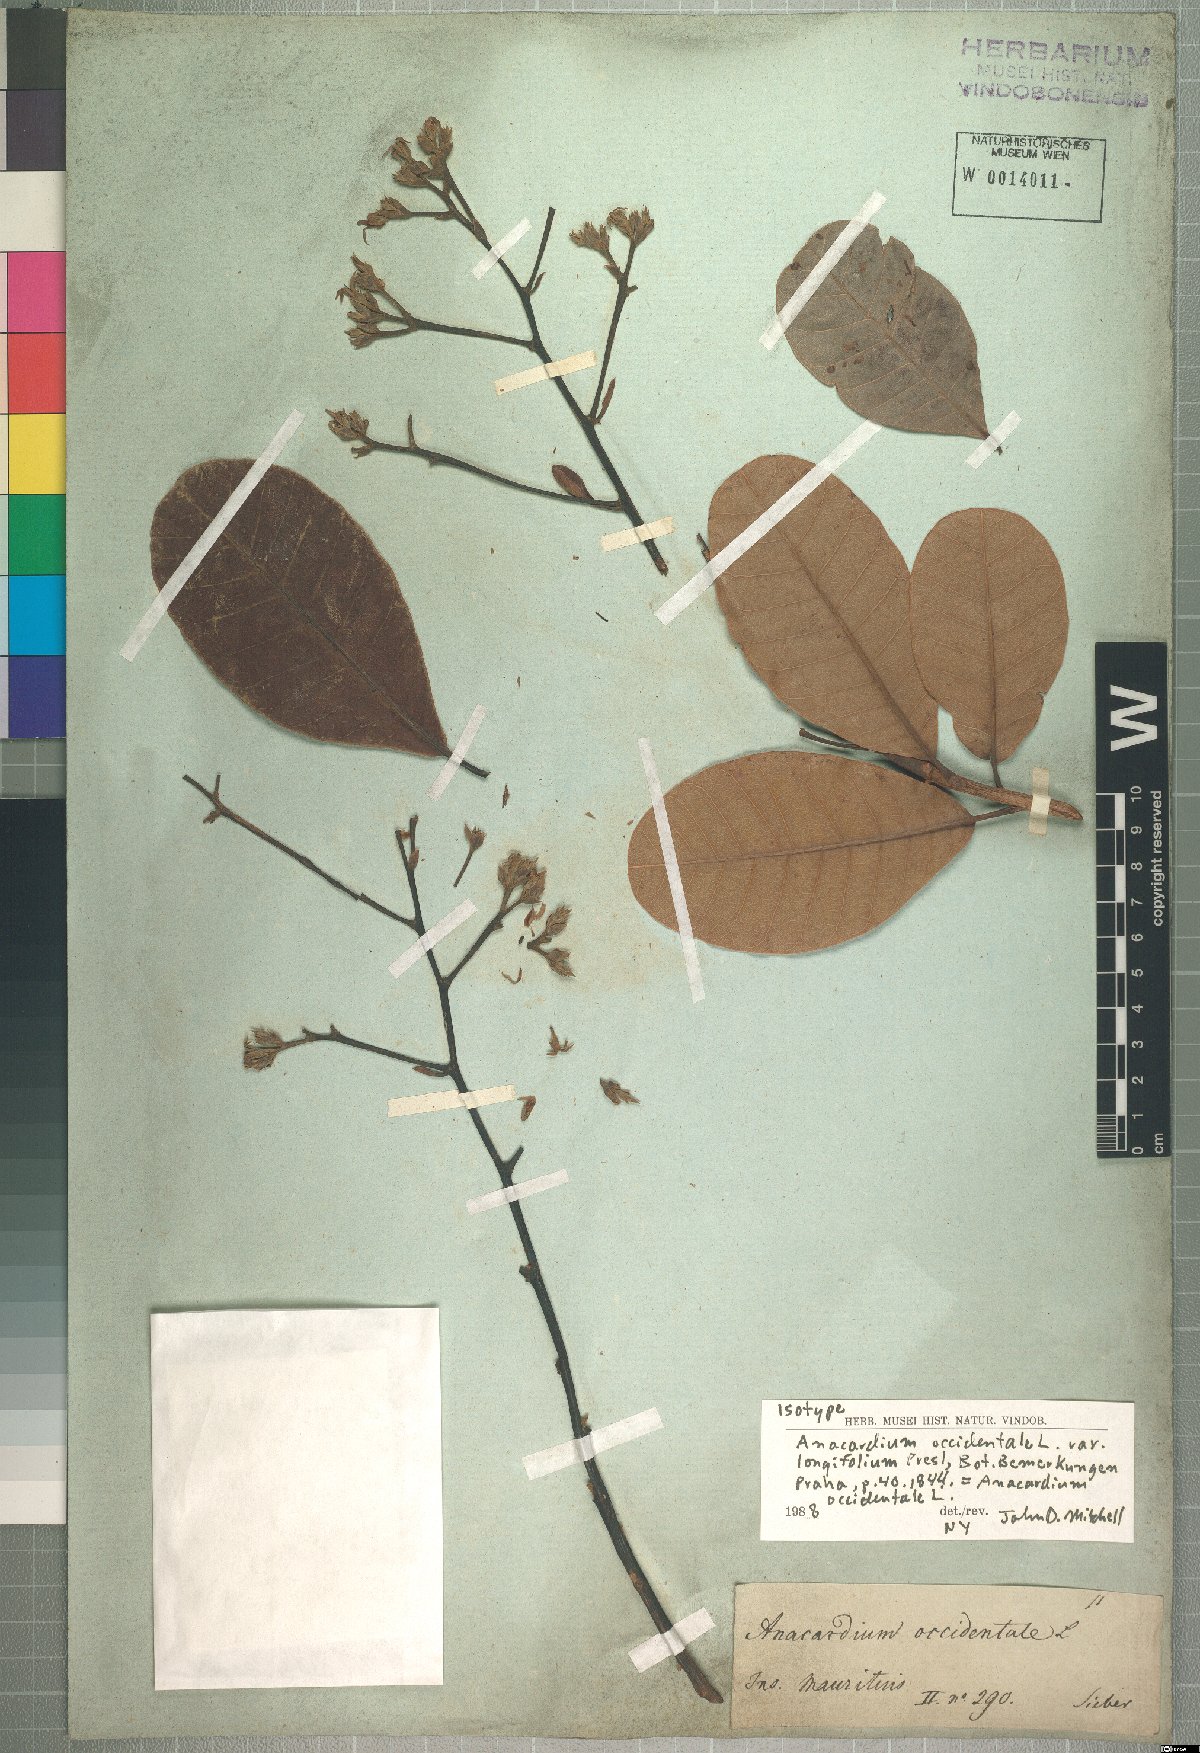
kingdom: Plantae
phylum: Tracheophyta
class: Magnoliopsida
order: Sapindales
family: Anacardiaceae
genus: Anacardium
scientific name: Anacardium occidentale
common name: Cashew
